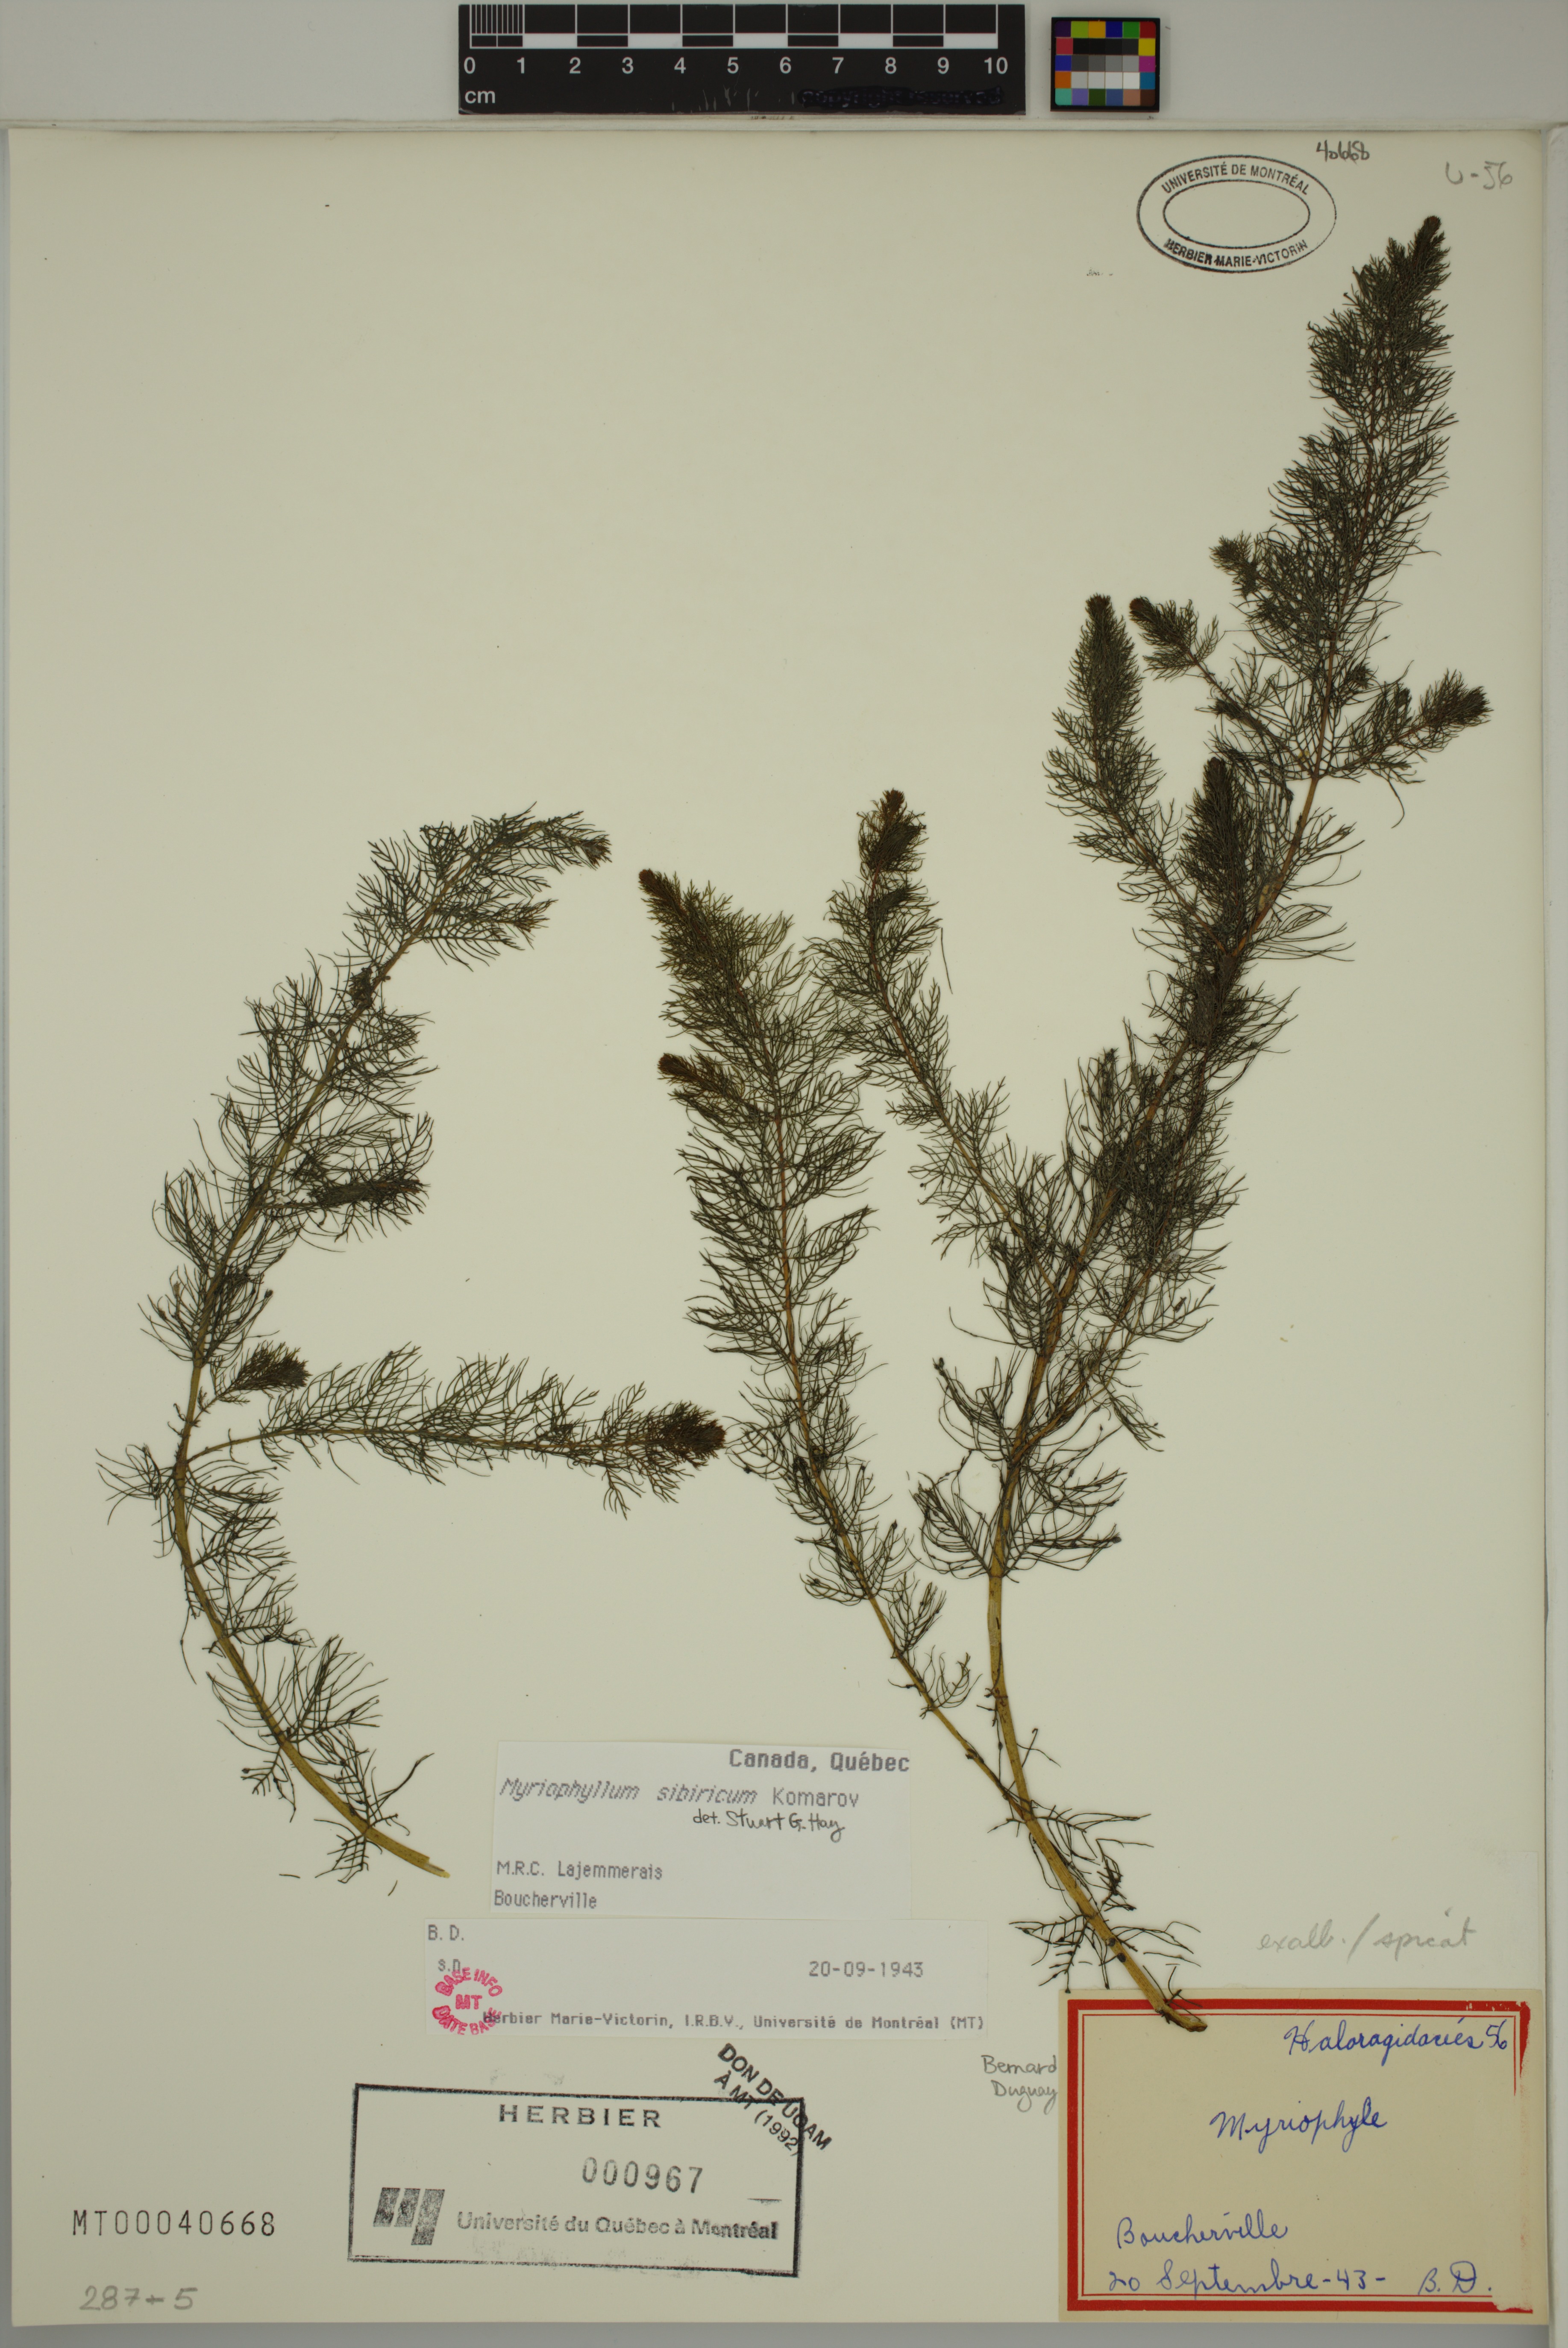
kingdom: Plantae
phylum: Tracheophyta
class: Magnoliopsida
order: Saxifragales
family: Haloragaceae
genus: Myriophyllum
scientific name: Myriophyllum sibiricum
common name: Siberian water-milfoil
